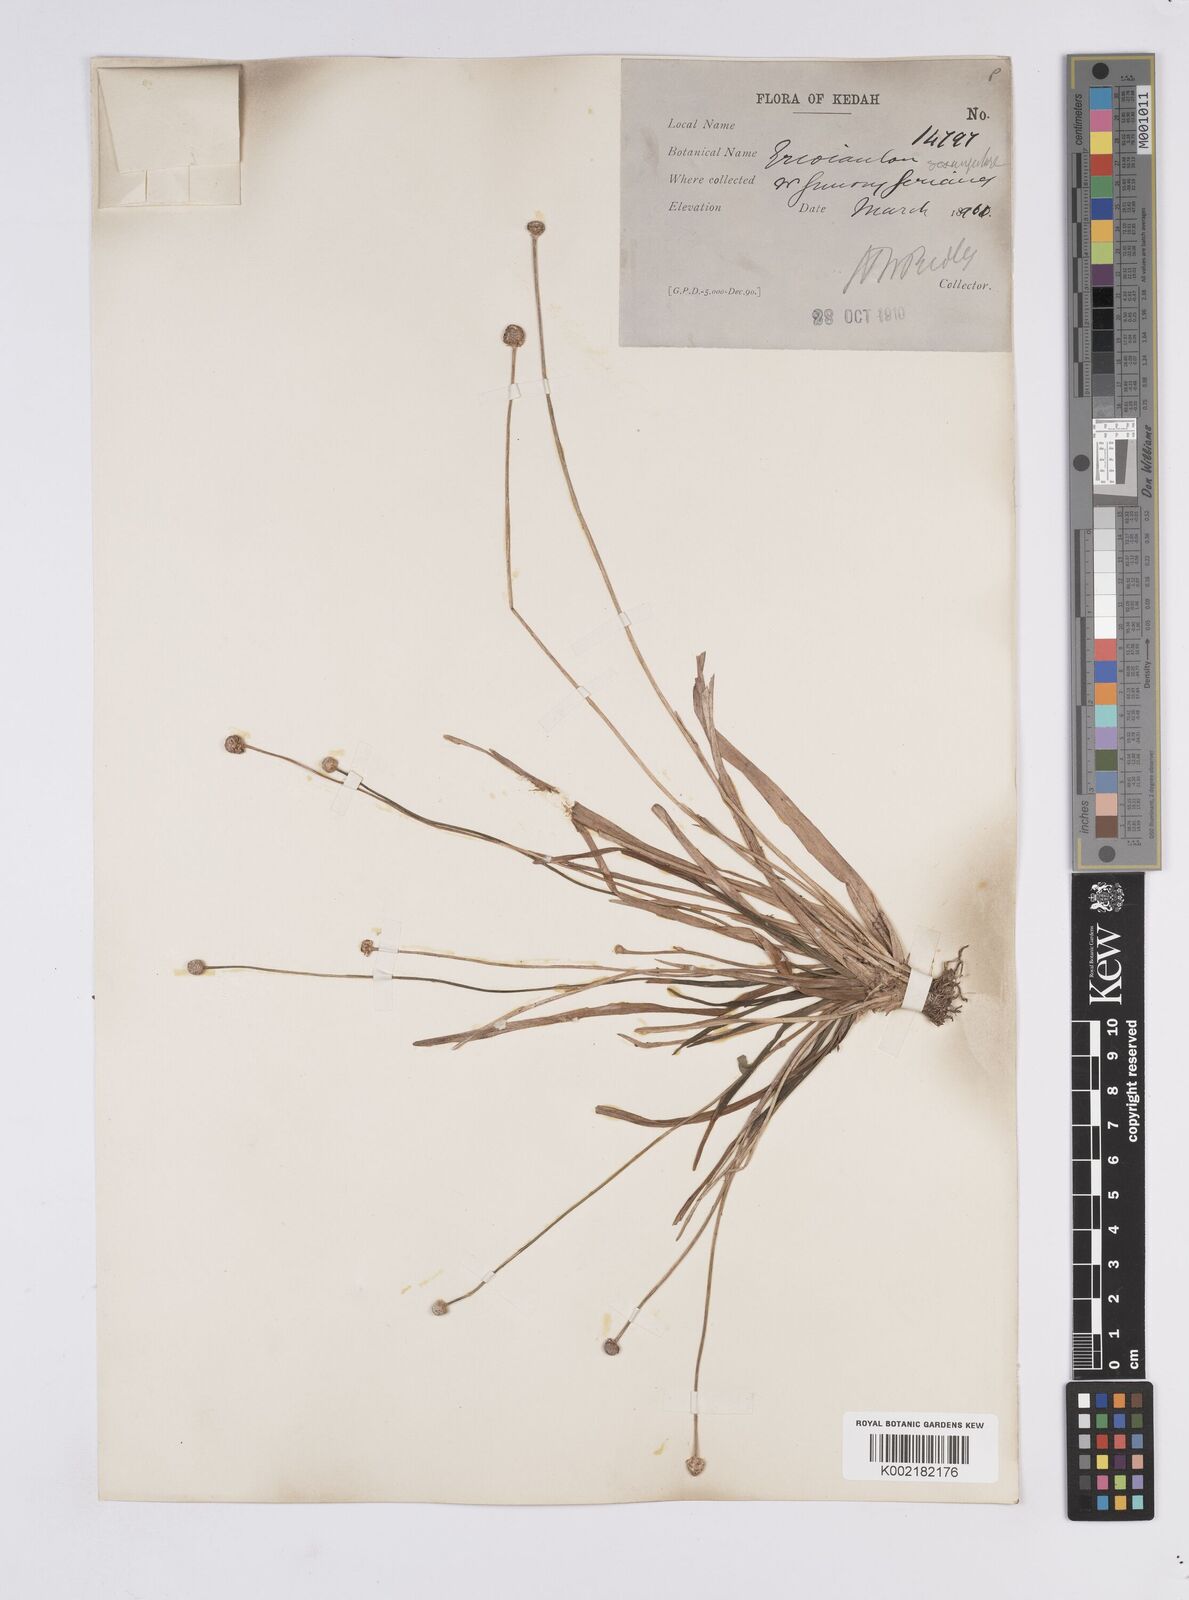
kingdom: Plantae
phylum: Tracheophyta
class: Liliopsida
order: Poales
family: Eriocaulaceae
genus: Eriocaulon
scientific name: Eriocaulon sexangulare
